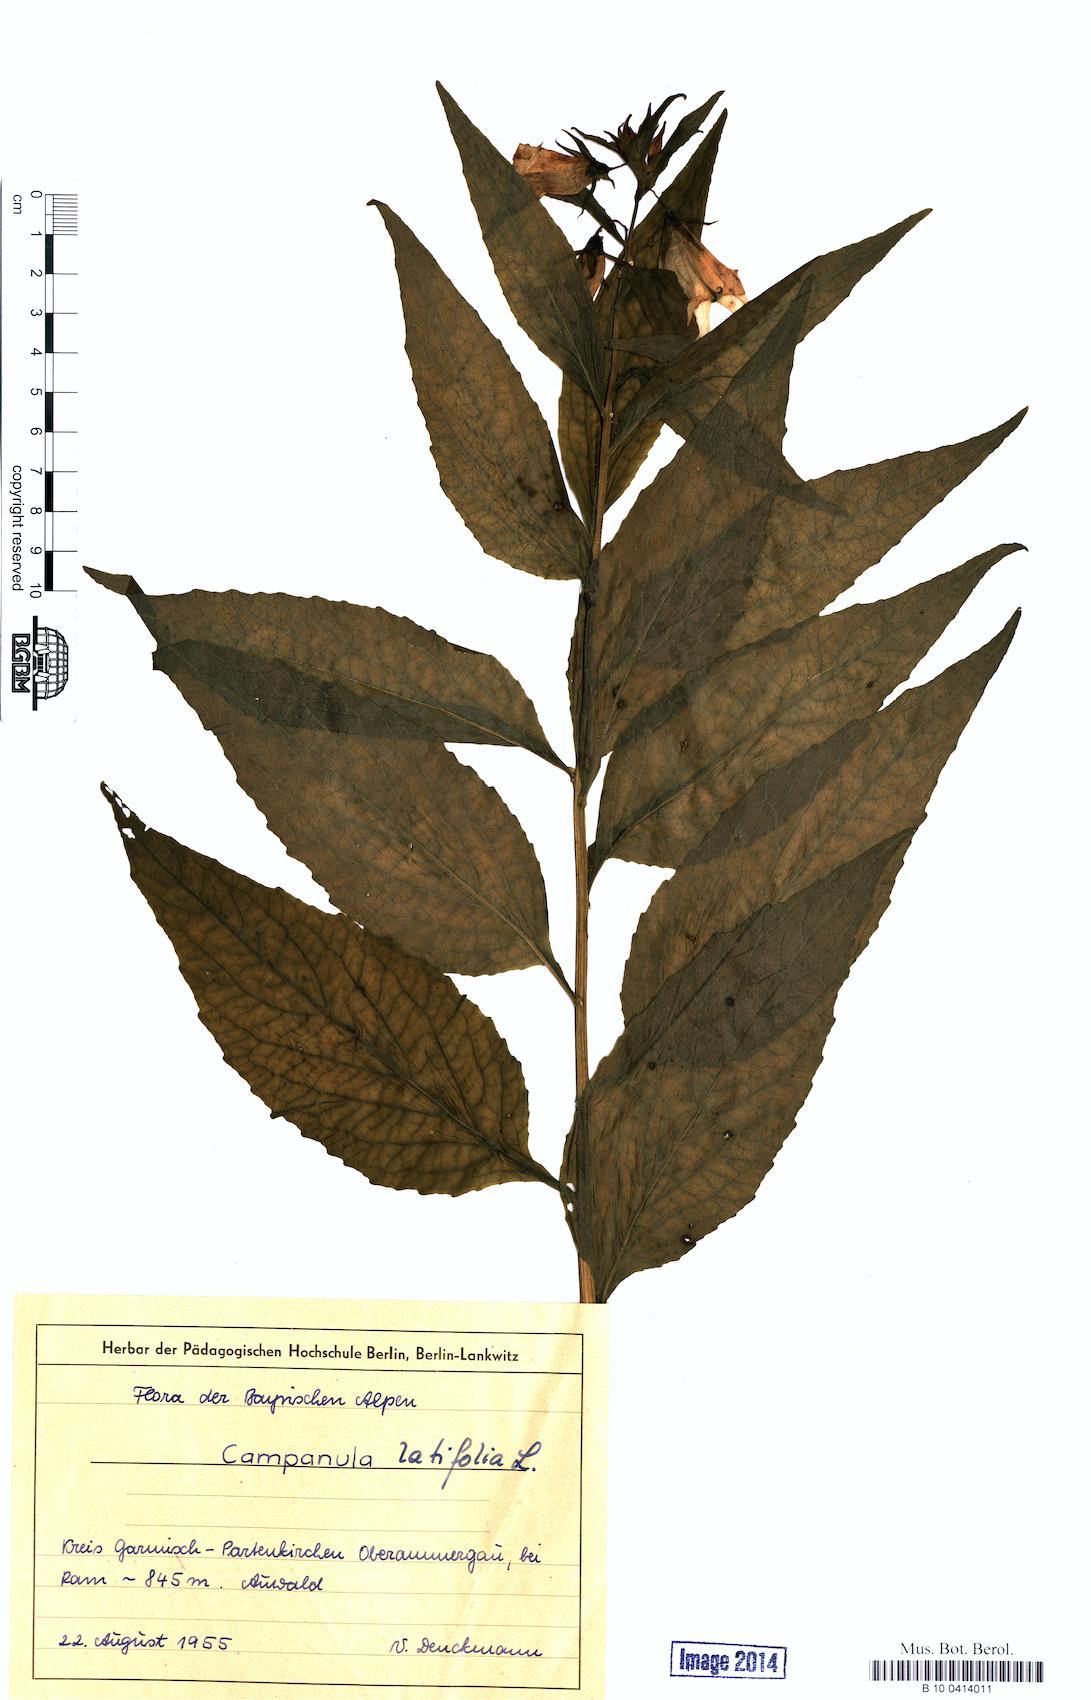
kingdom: Plantae
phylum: Tracheophyta
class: Magnoliopsida
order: Asterales
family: Campanulaceae
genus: Campanula
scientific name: Campanula latifolia
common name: Giant bellflower
